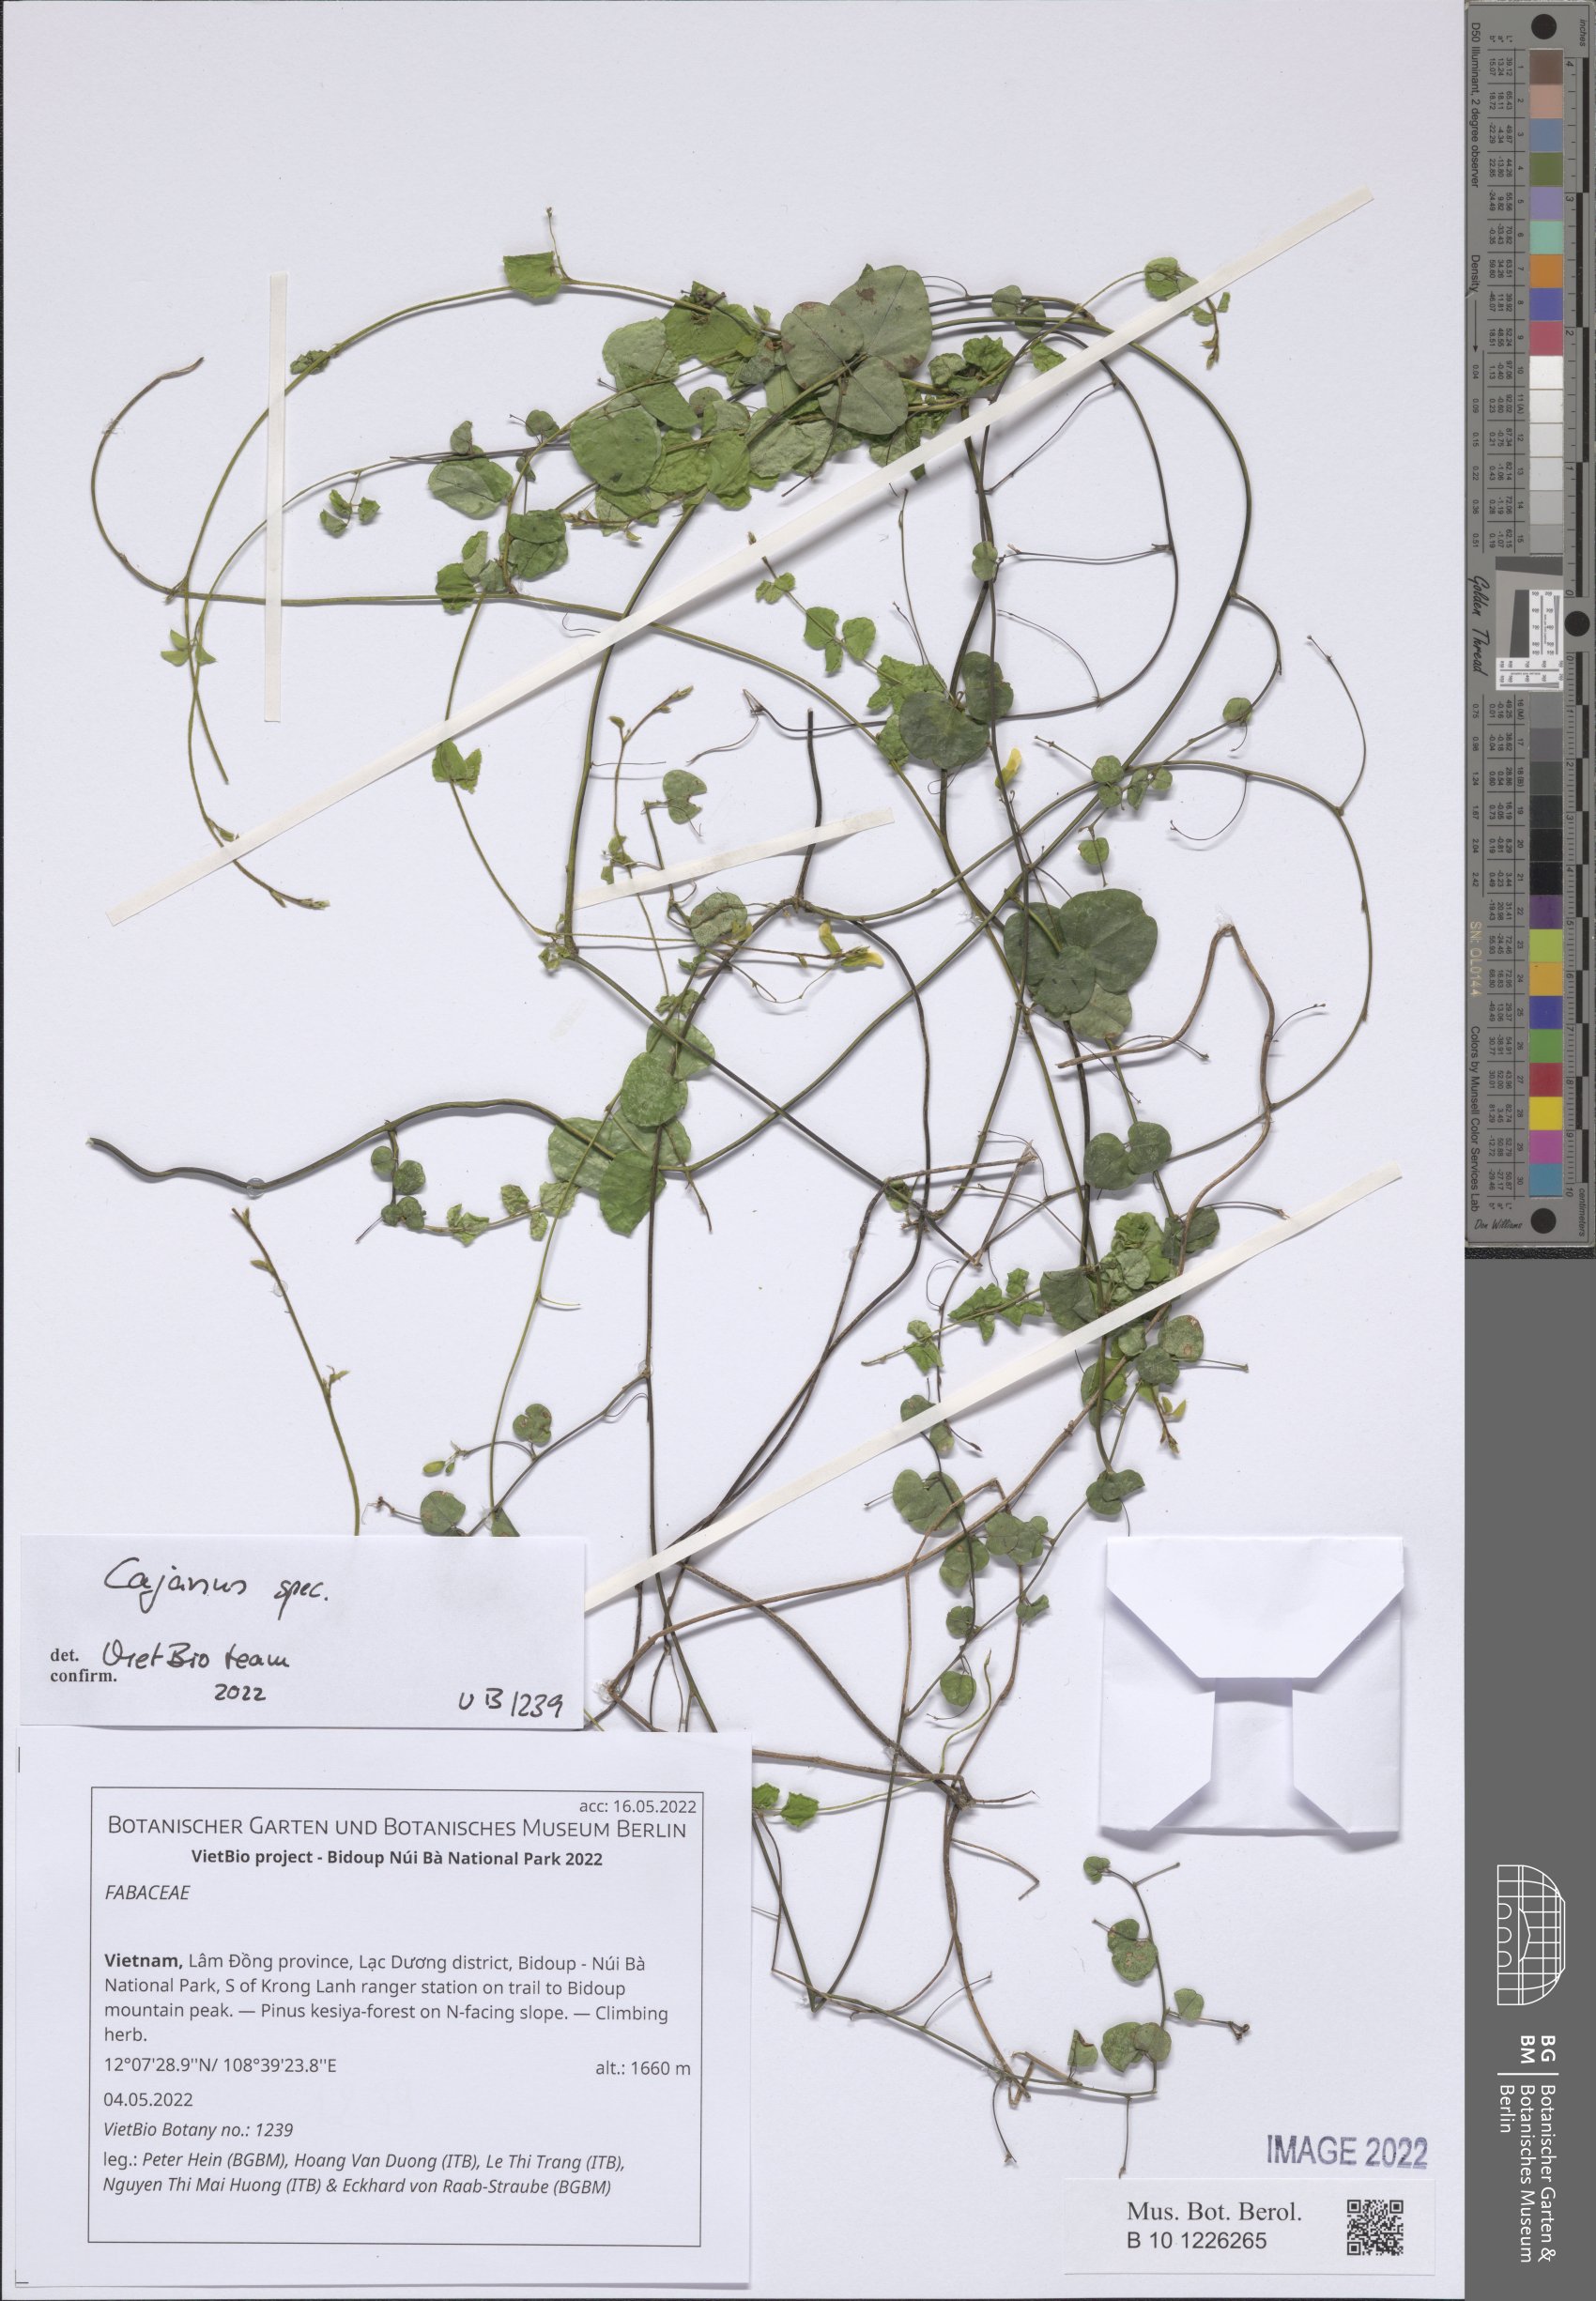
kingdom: Plantae
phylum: Tracheophyta
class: Magnoliopsida
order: Fabales
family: Fabaceae
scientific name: Fabaceae
